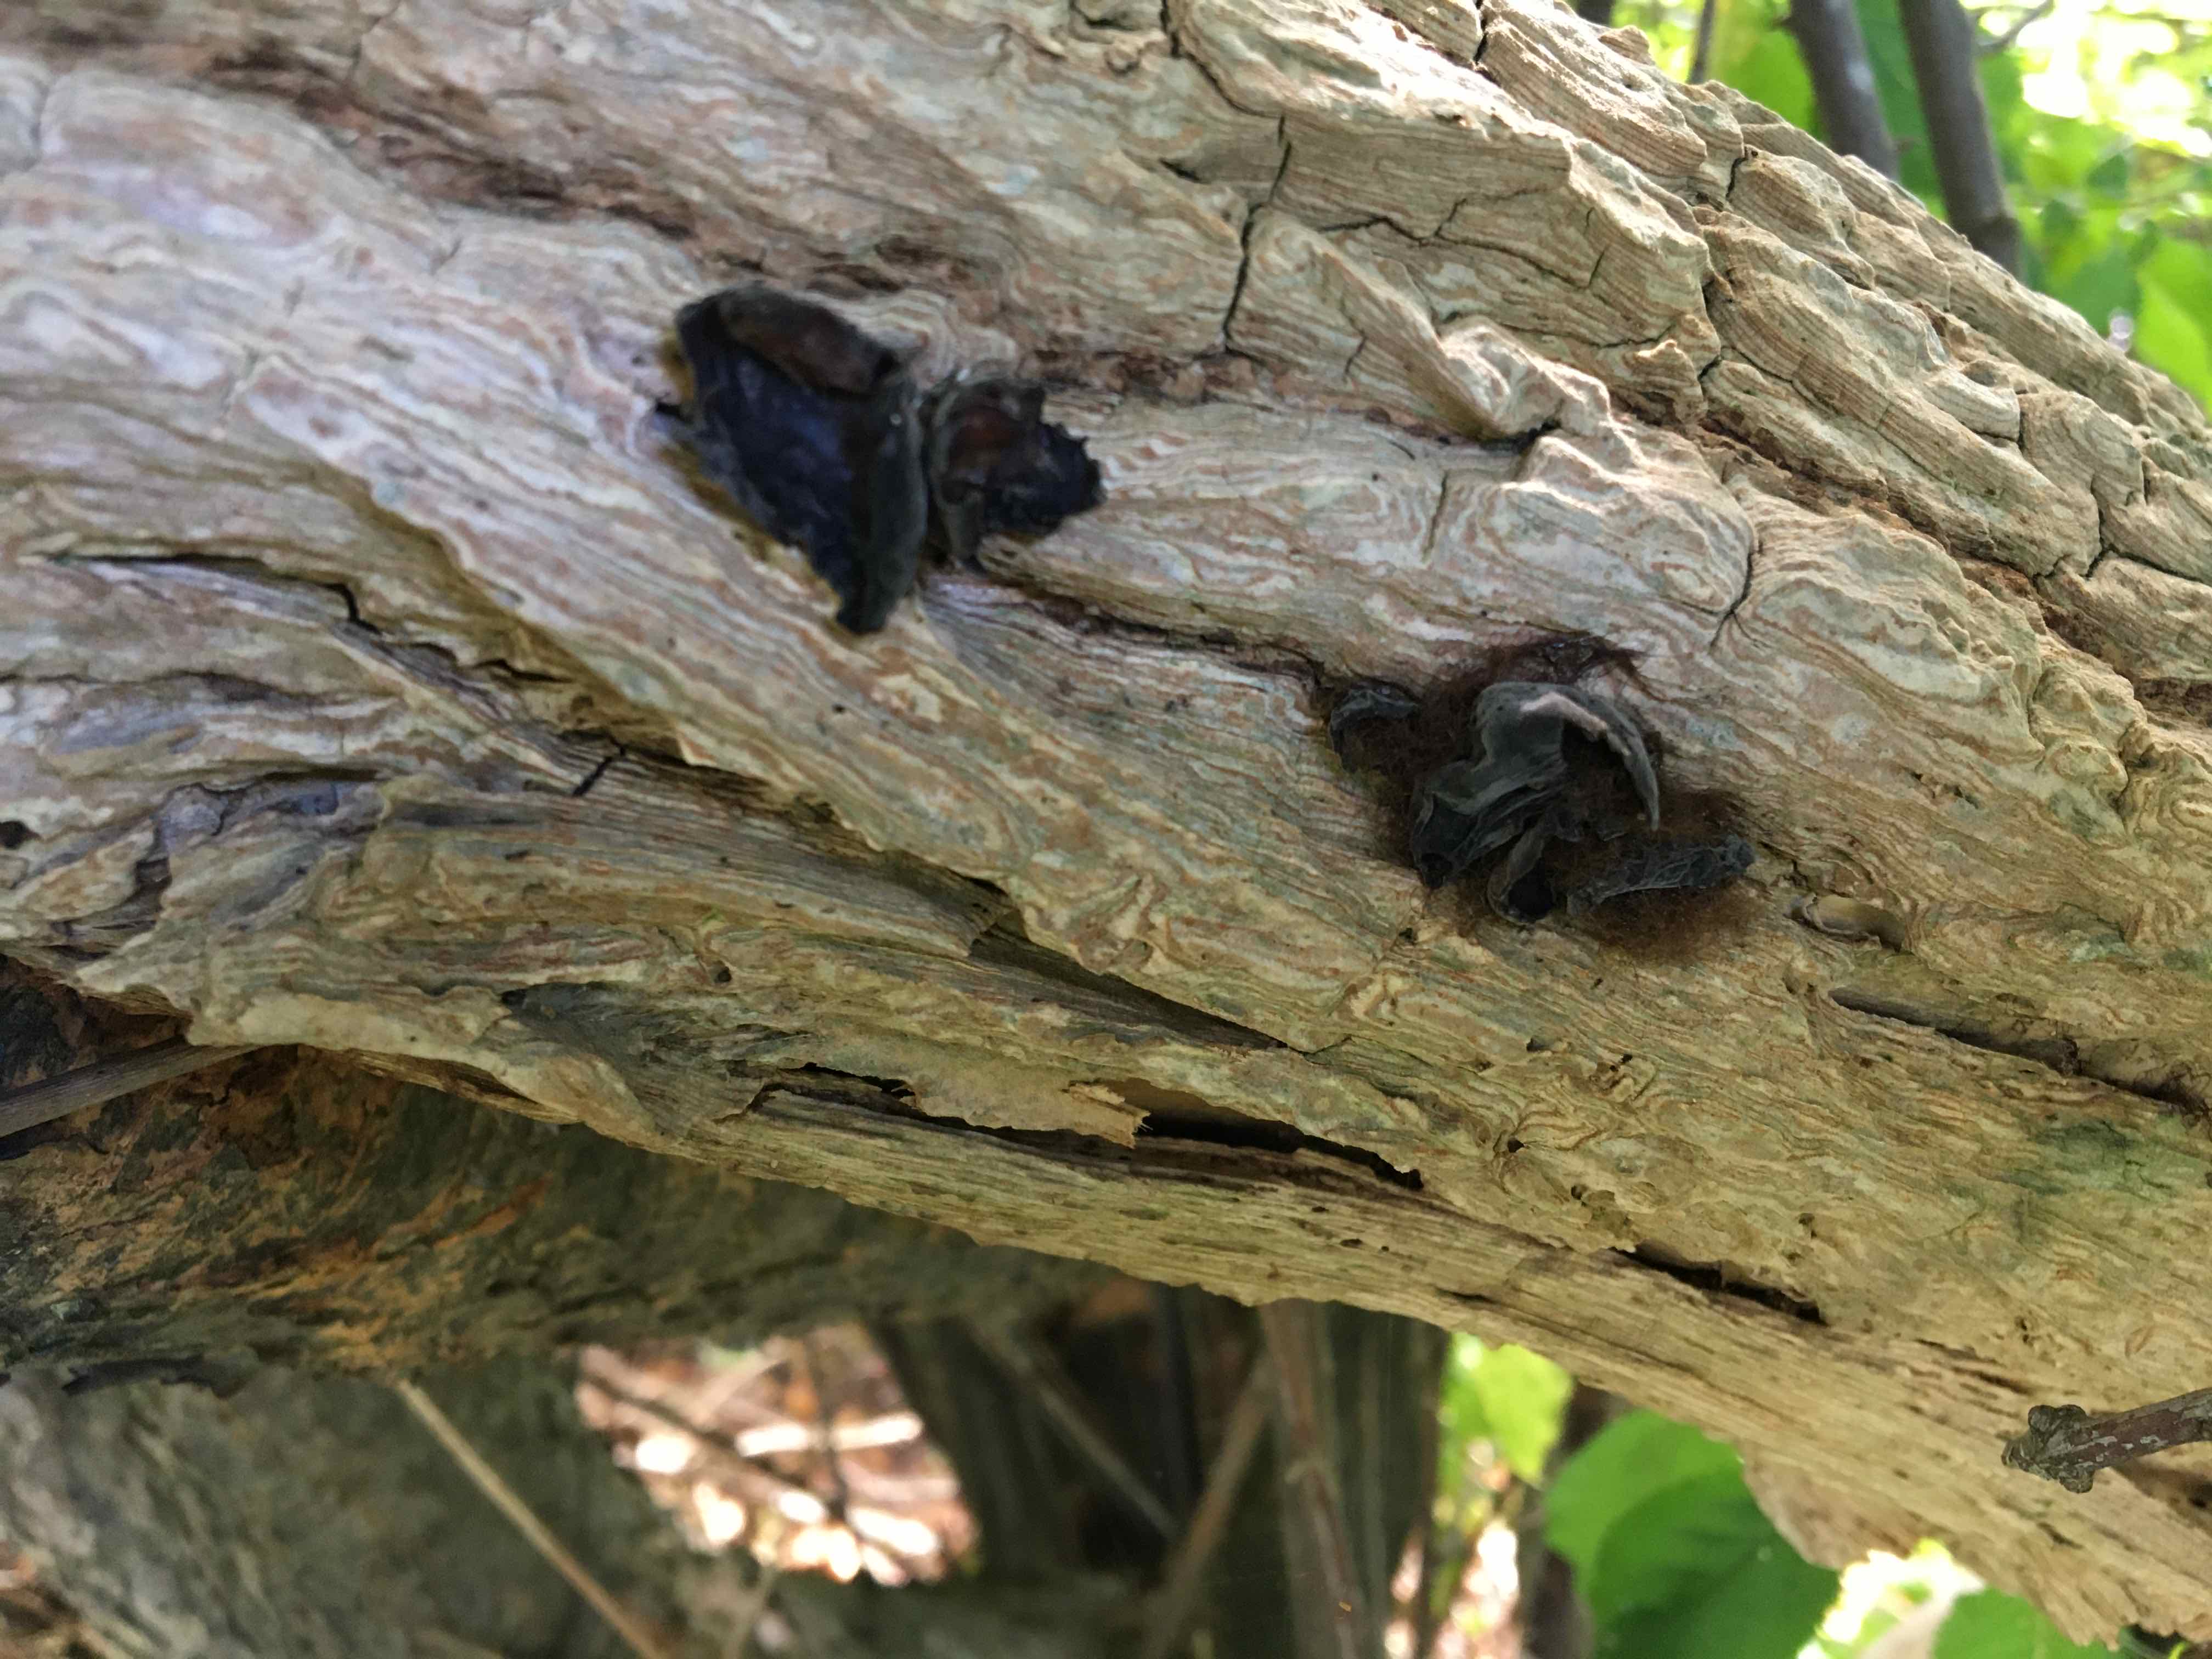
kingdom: Fungi
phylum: Basidiomycota
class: Agaricomycetes
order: Auriculariales
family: Auriculariaceae
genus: Auricularia
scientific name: Auricularia auricula-judae
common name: almindelig judasøre
